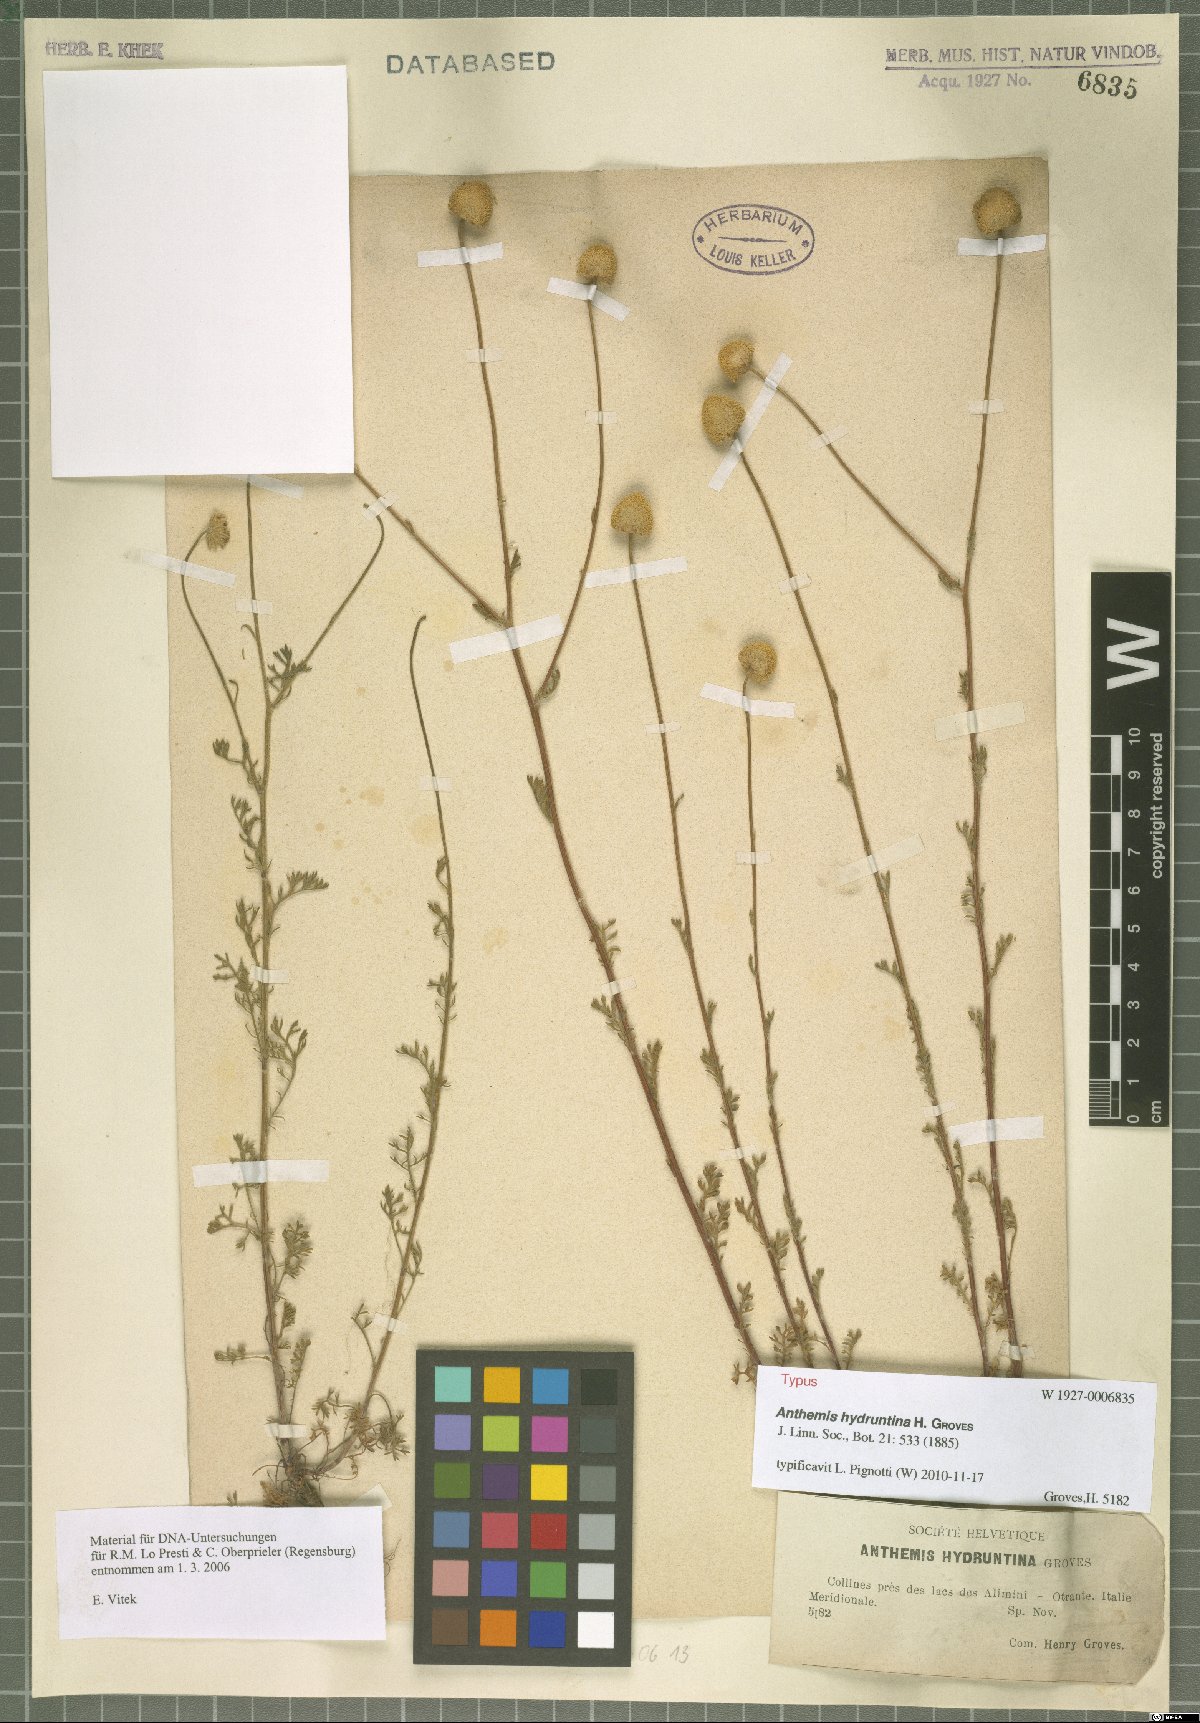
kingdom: Plantae
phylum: Tracheophyta
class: Magnoliopsida
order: Asterales
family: Asteraceae
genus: Anthemis
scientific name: Anthemis hydruntina
